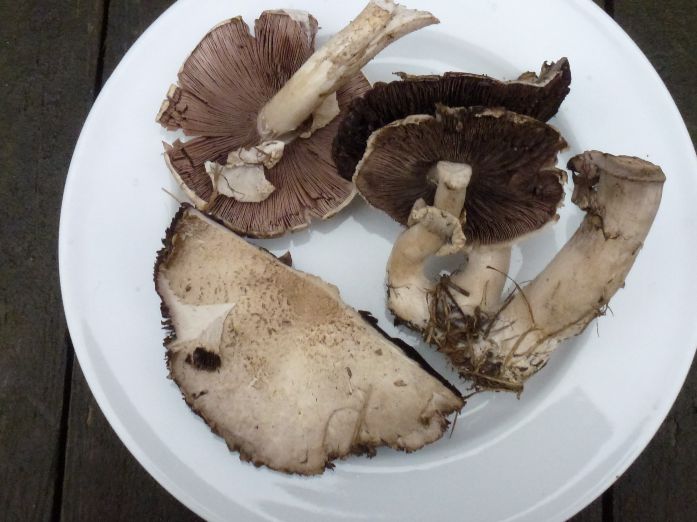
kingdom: Fungi
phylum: Basidiomycota
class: Agaricomycetes
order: Agaricales
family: Agaricaceae
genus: Agaricus
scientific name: Agaricus arvensis
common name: ager-champignon
